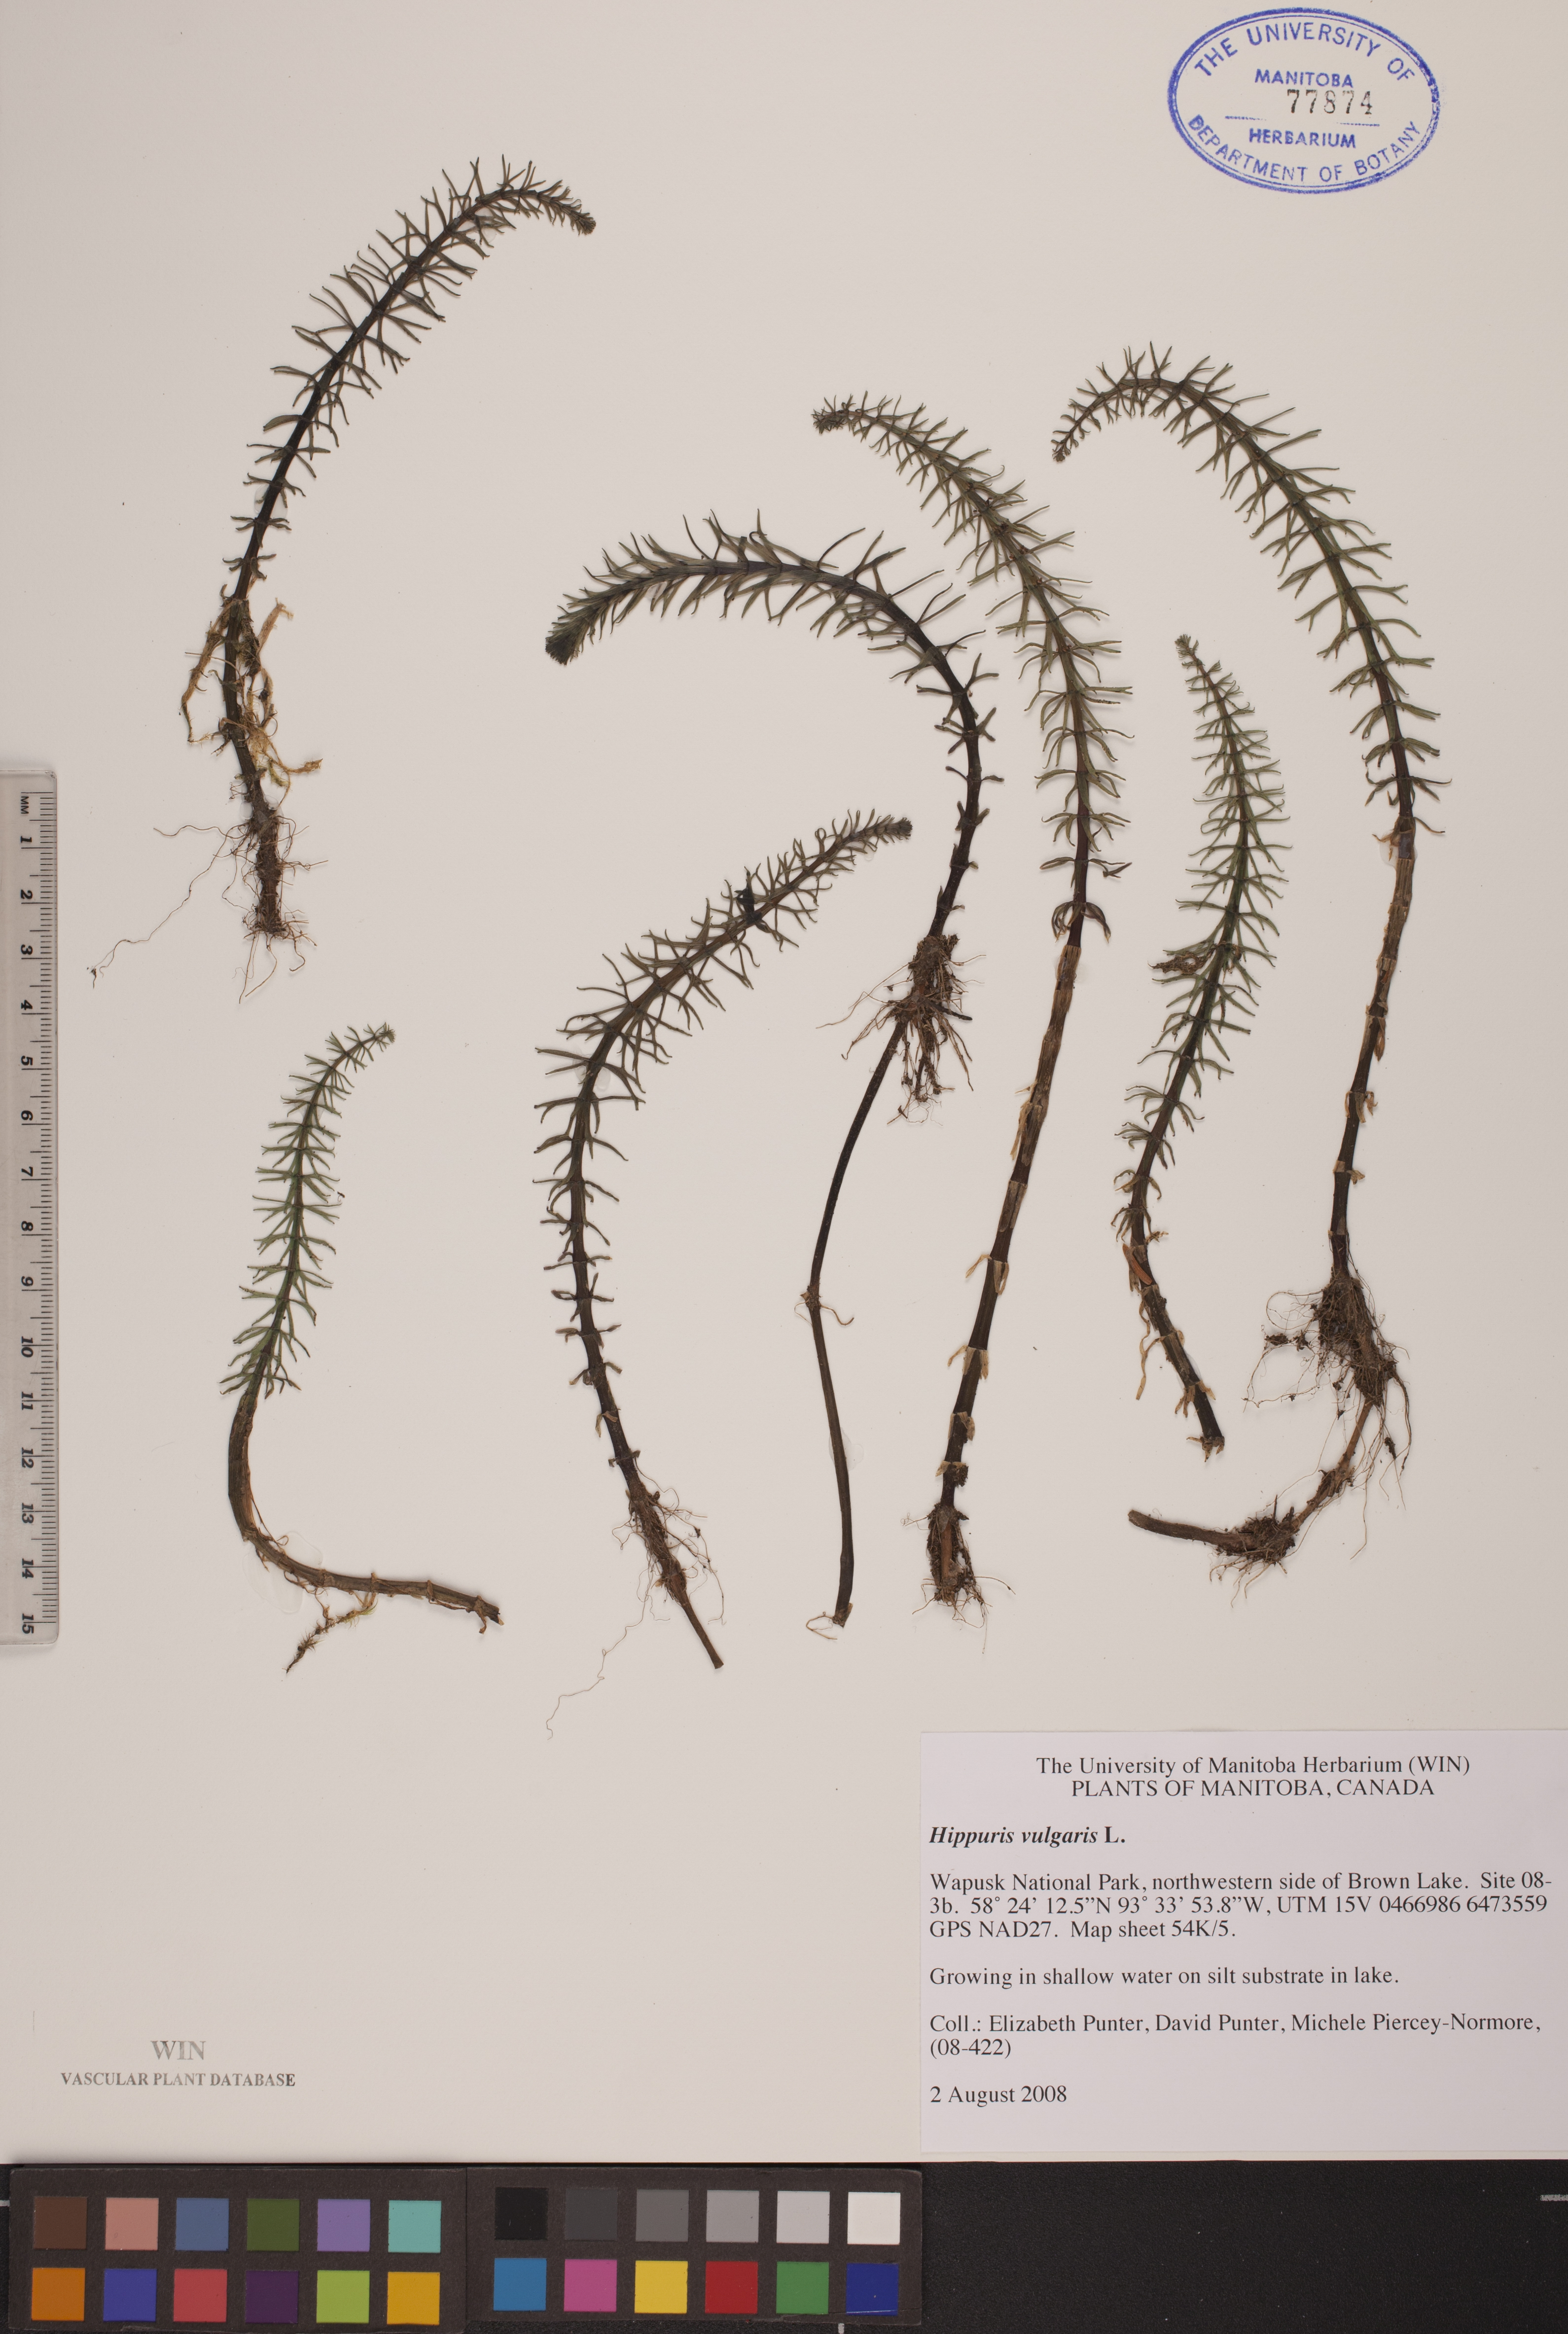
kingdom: Plantae
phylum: Tracheophyta
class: Magnoliopsida
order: Lamiales
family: Plantaginaceae
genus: Hippuris
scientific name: Hippuris vulgaris
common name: Mare's-tail
